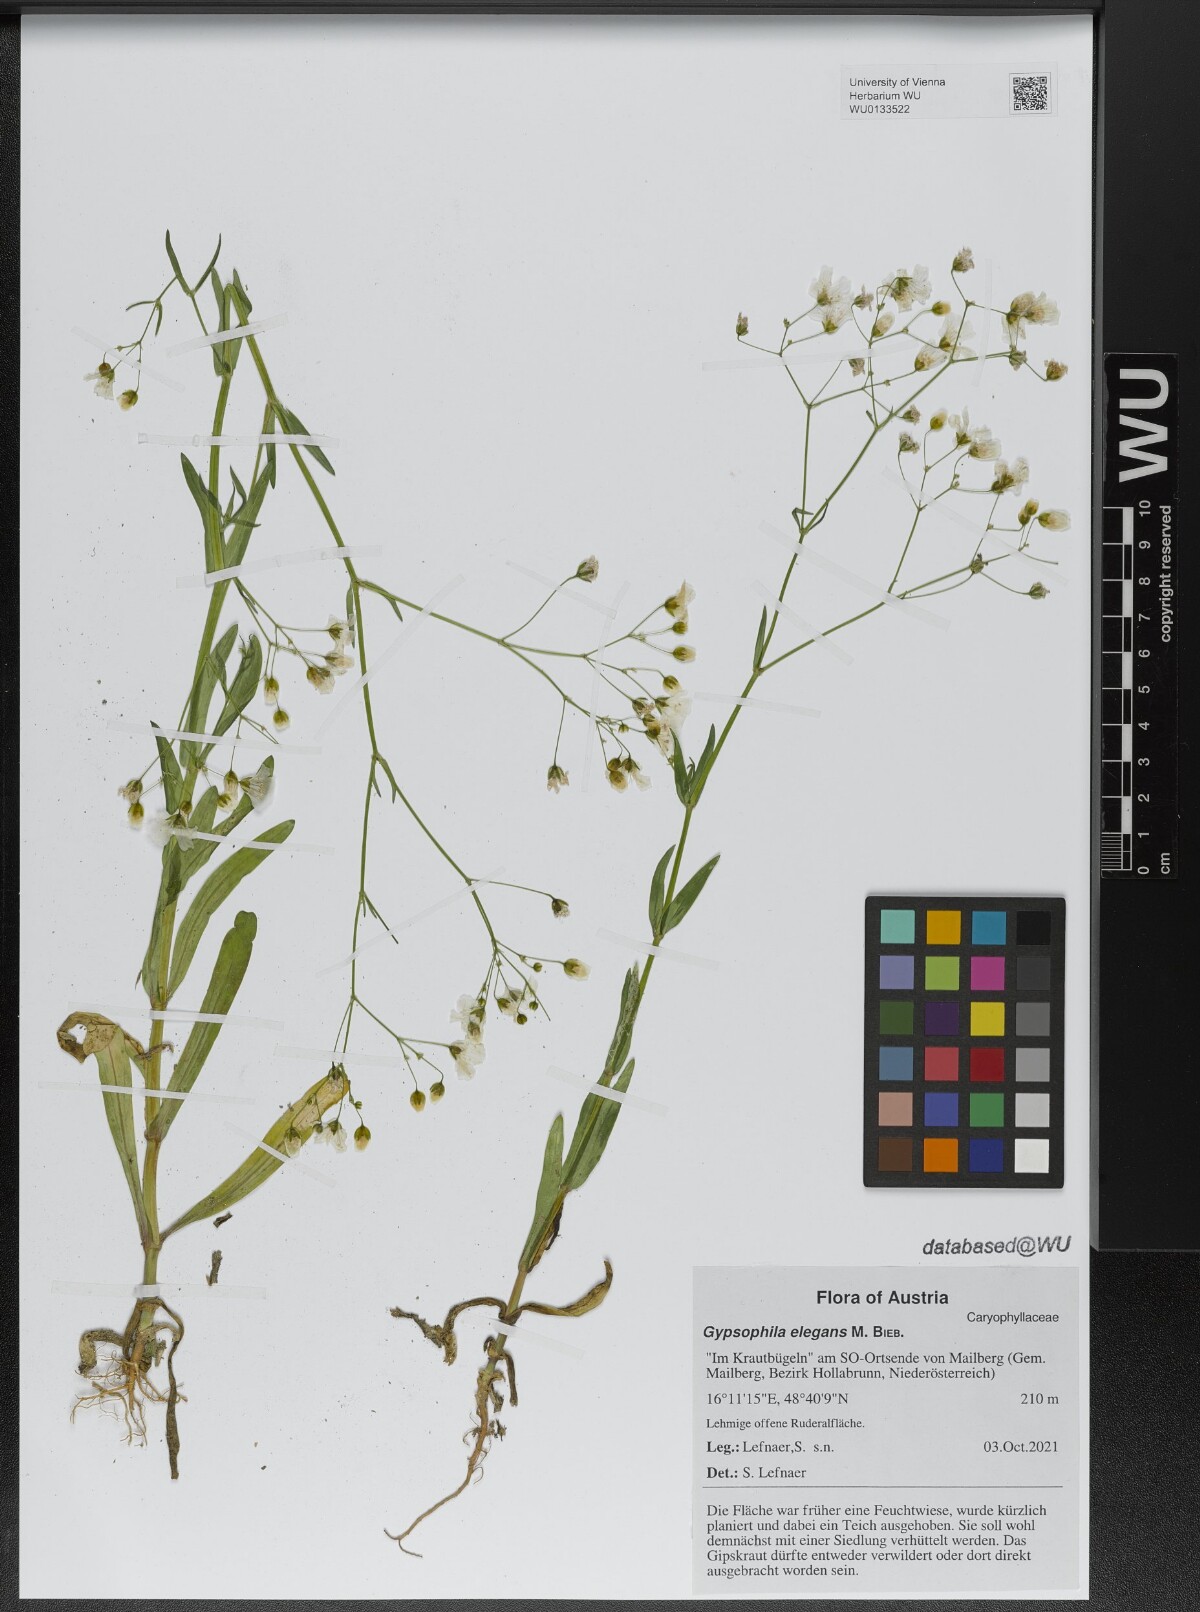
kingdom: Plantae
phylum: Tracheophyta
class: Magnoliopsida
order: Caryophyllales
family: Caryophyllaceae
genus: Gypsophila
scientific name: Gypsophila elegans
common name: Showy baby's-breath
